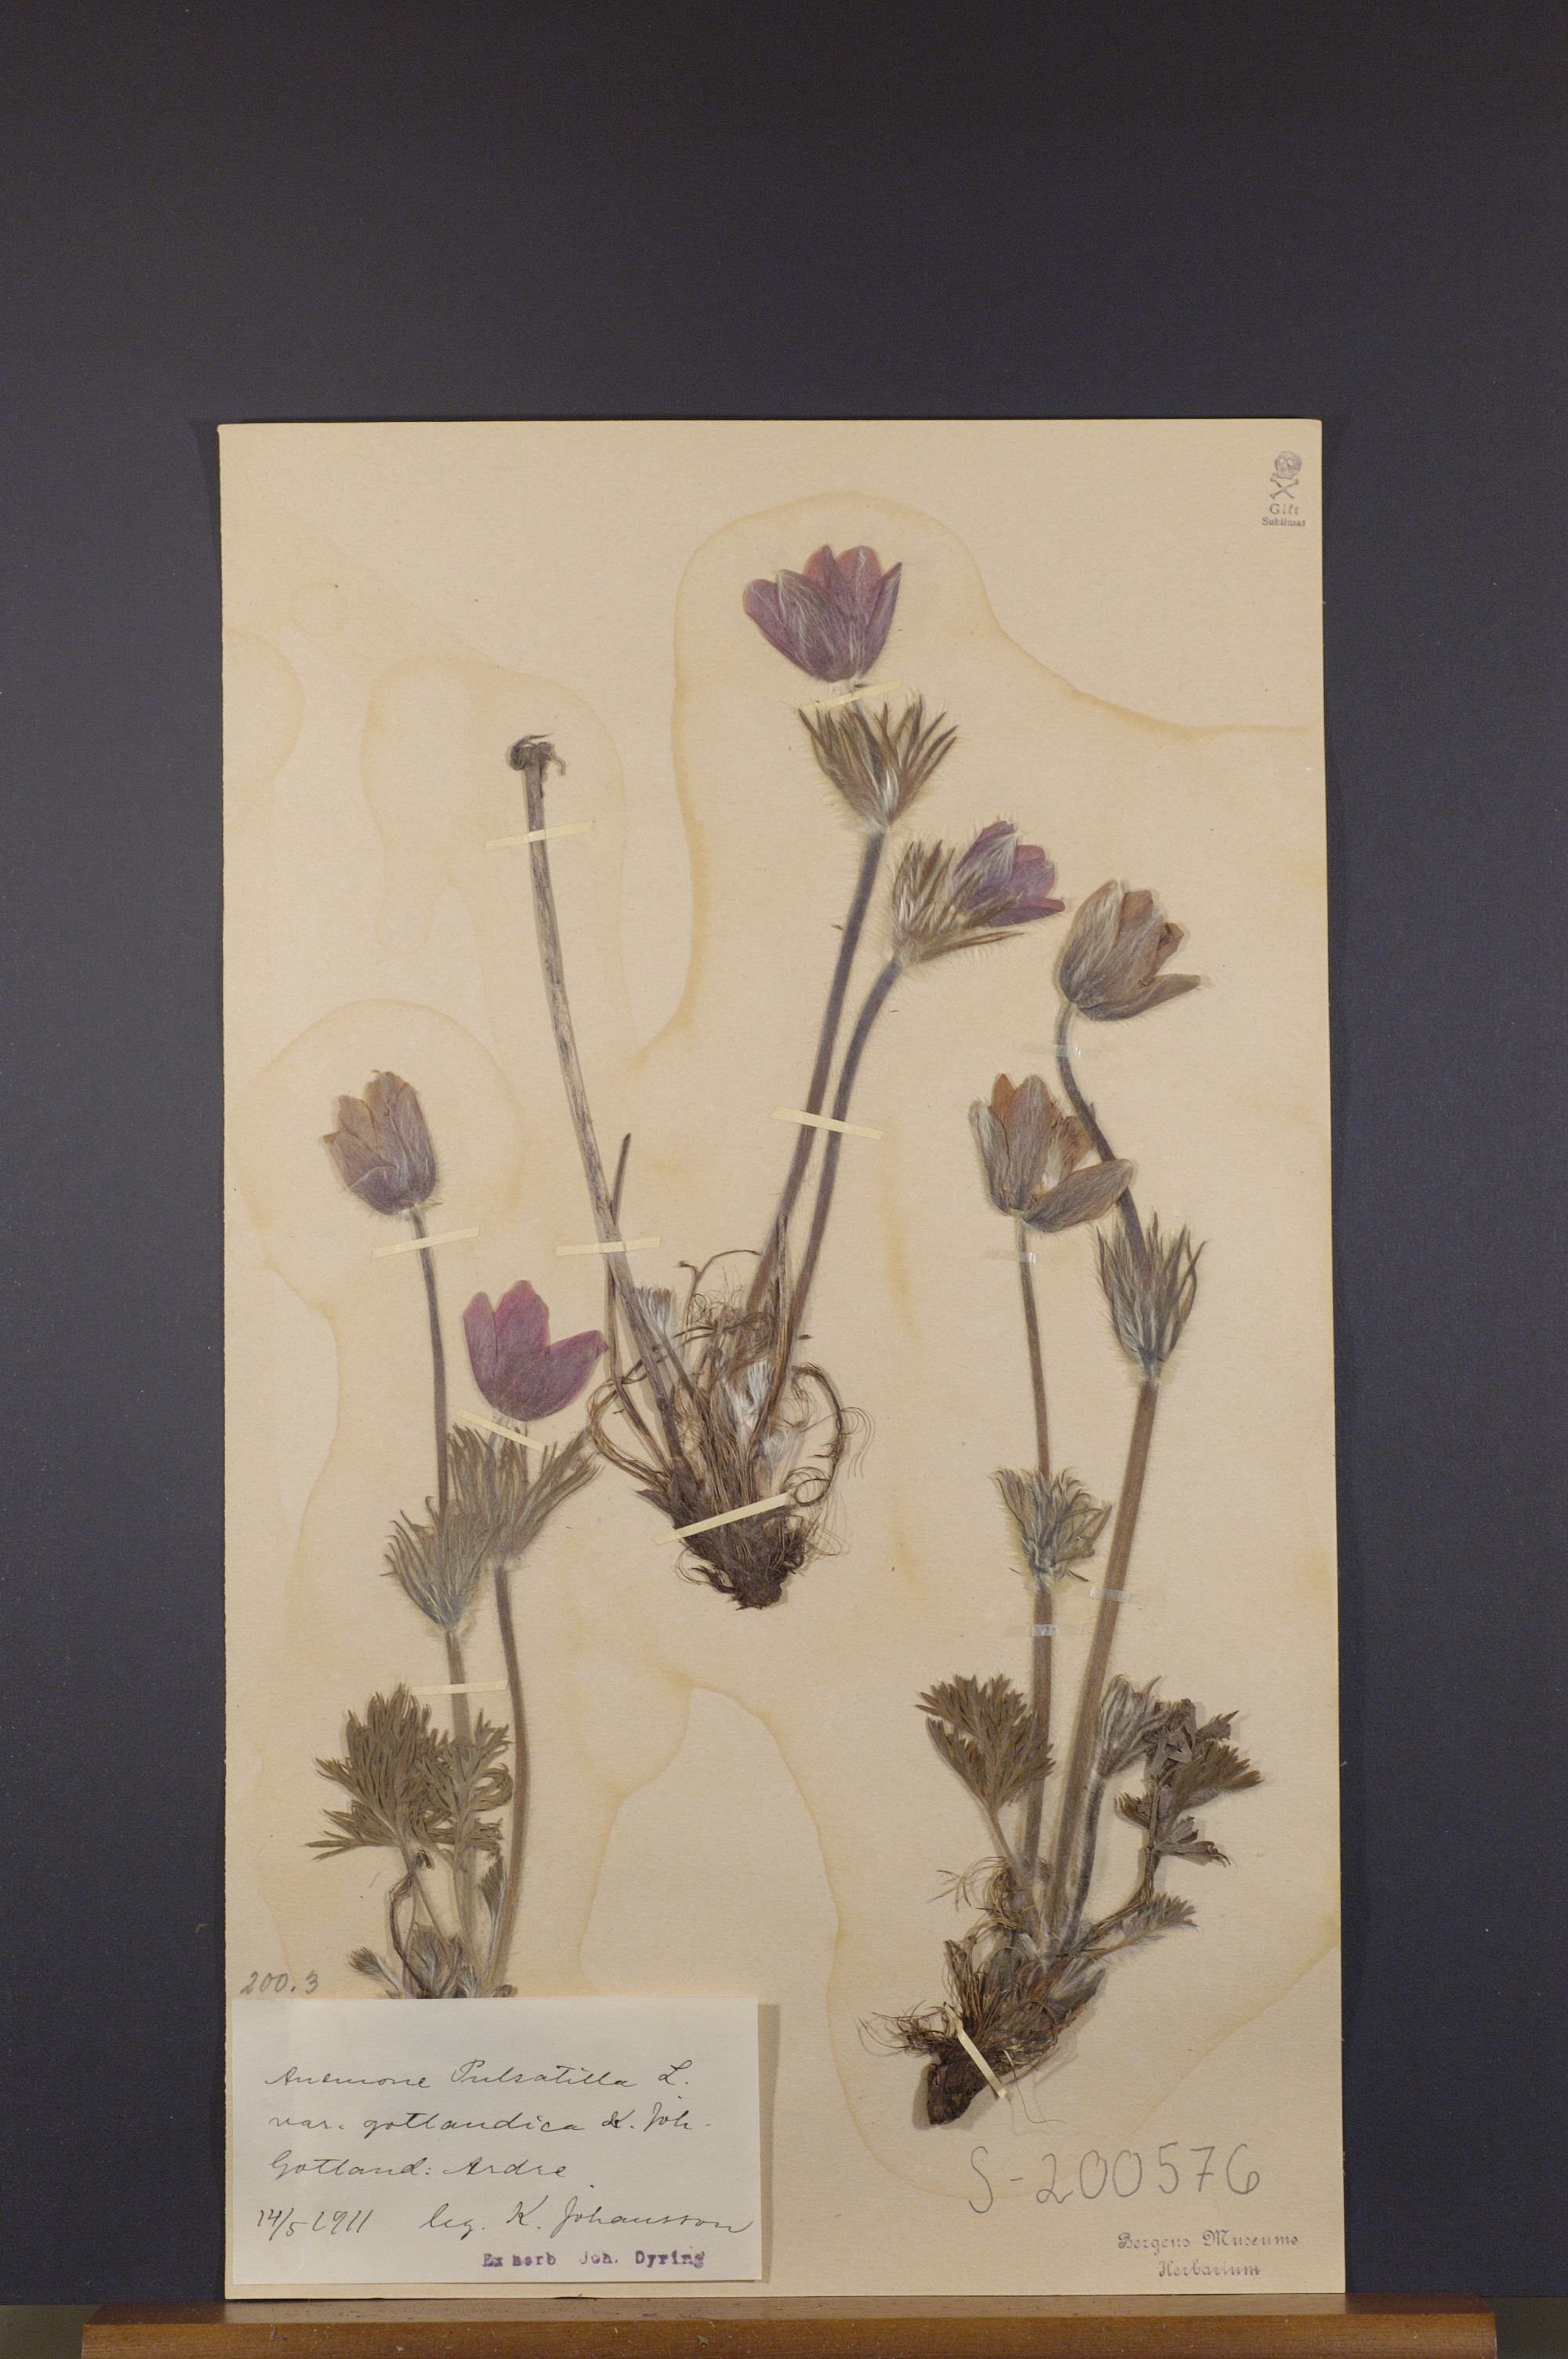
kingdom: Plantae
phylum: Tracheophyta
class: Magnoliopsida
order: Ranunculales
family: Ranunculaceae
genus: Pulsatilla
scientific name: Pulsatilla grandis
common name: Greater pasque flower
